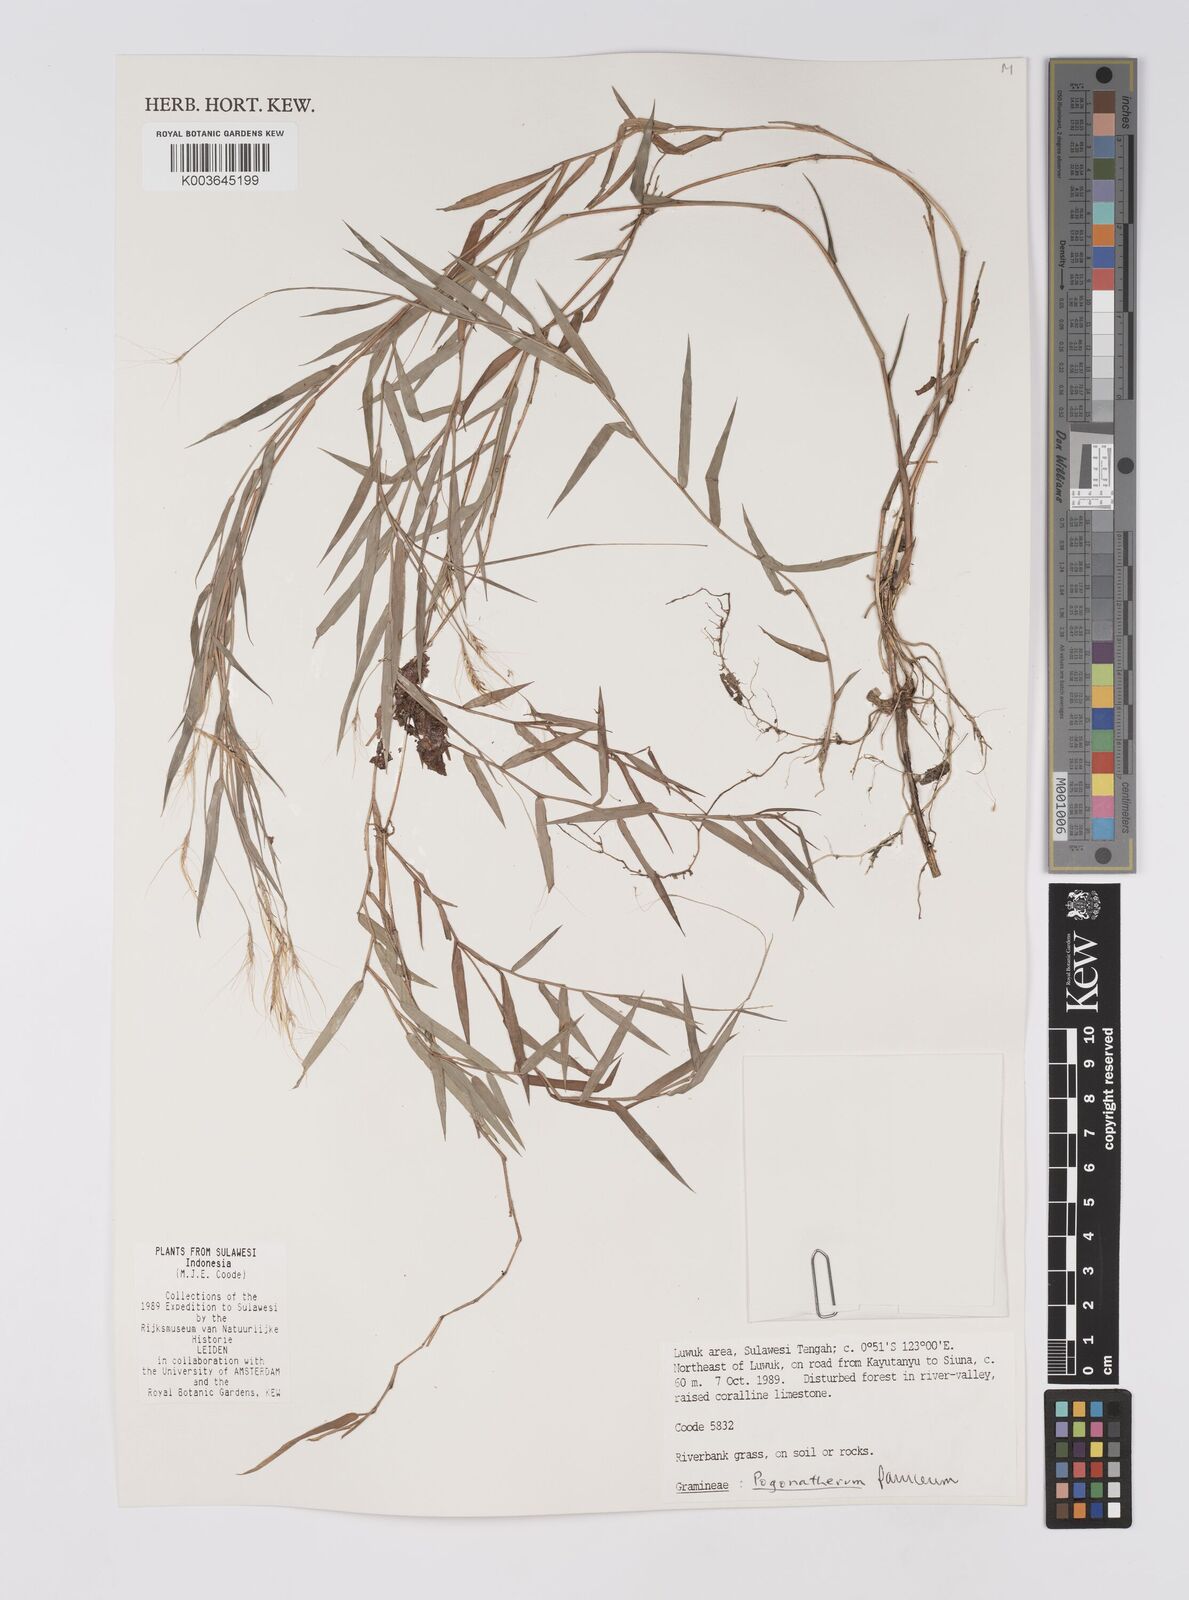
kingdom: Plantae
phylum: Tracheophyta
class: Liliopsida
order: Poales
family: Poaceae
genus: Pogonatherum
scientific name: Pogonatherum paniceum
